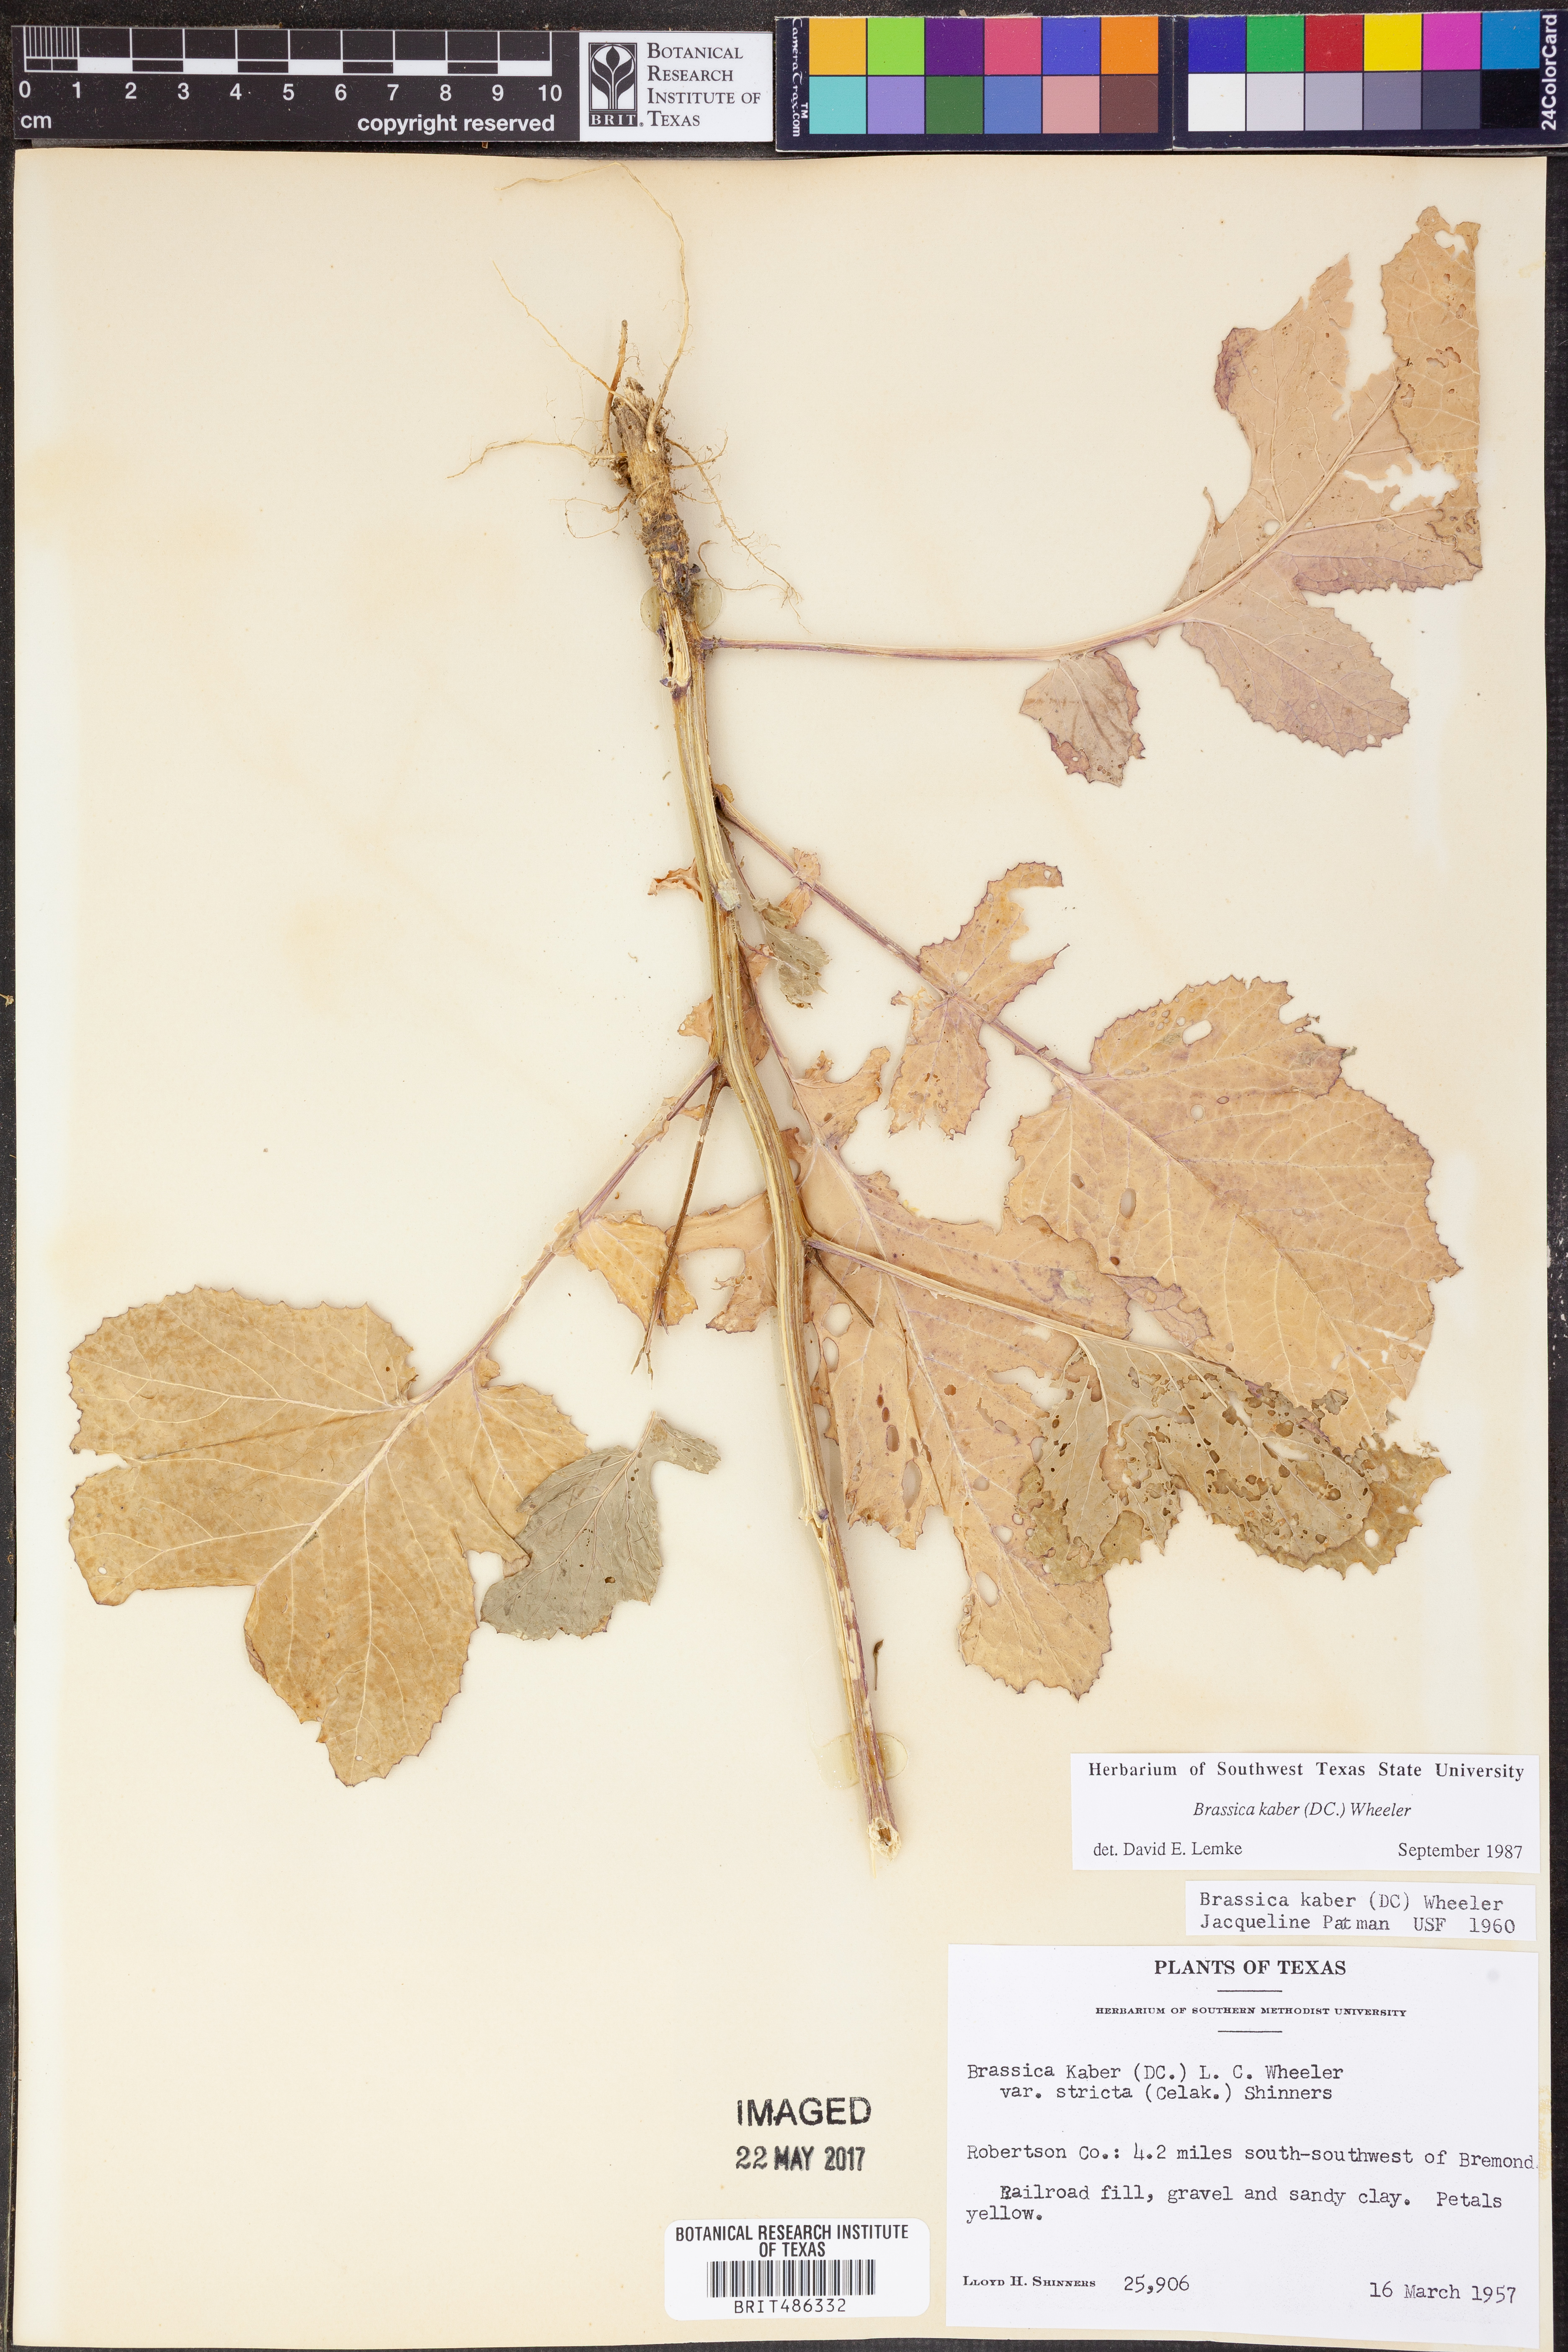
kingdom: Plantae
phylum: Tracheophyta
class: Magnoliopsida
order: Brassicales
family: Brassicaceae
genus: Sinapis
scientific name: Sinapis arvensis
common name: Charlock
